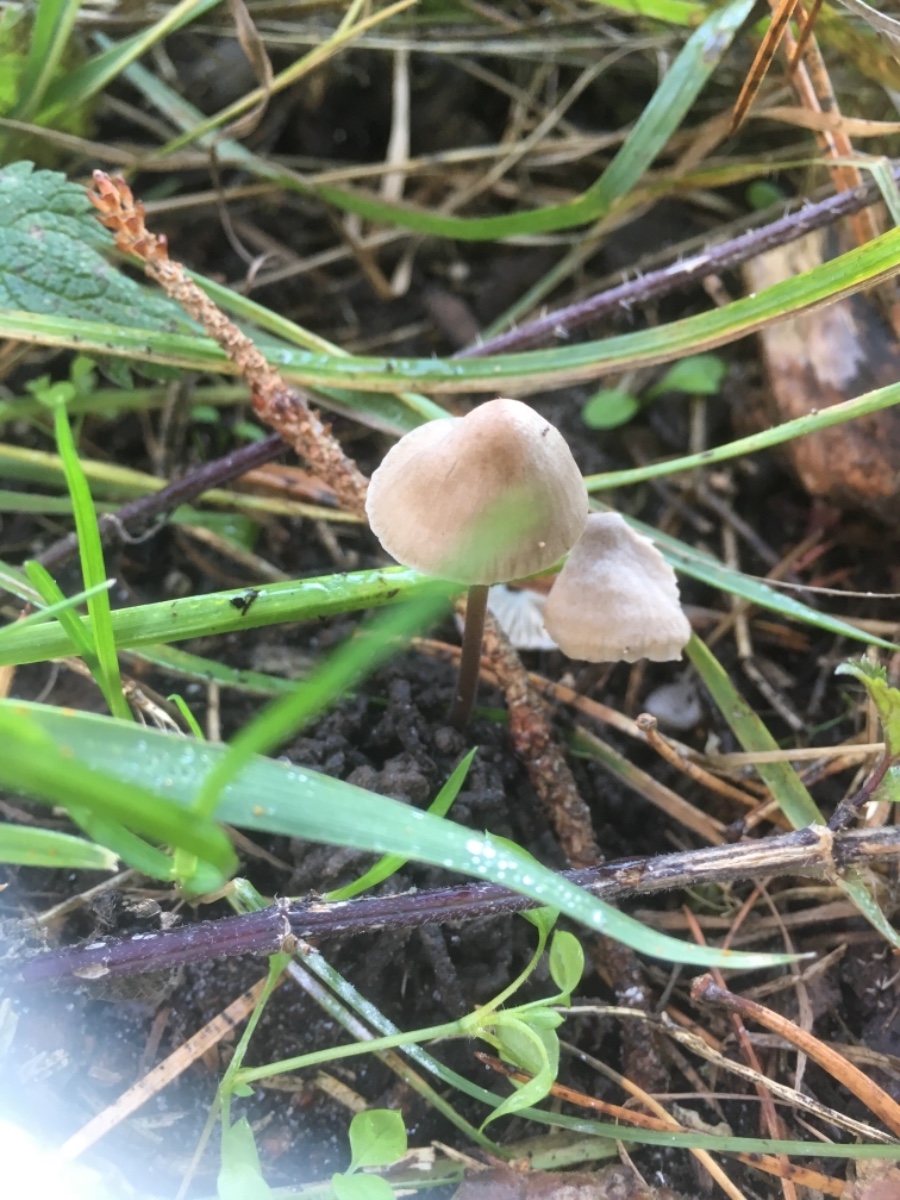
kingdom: Fungi
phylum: Basidiomycota
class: Agaricomycetes
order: Agaricales
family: Mycenaceae
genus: Mycena
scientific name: Mycena
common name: huesvamp
